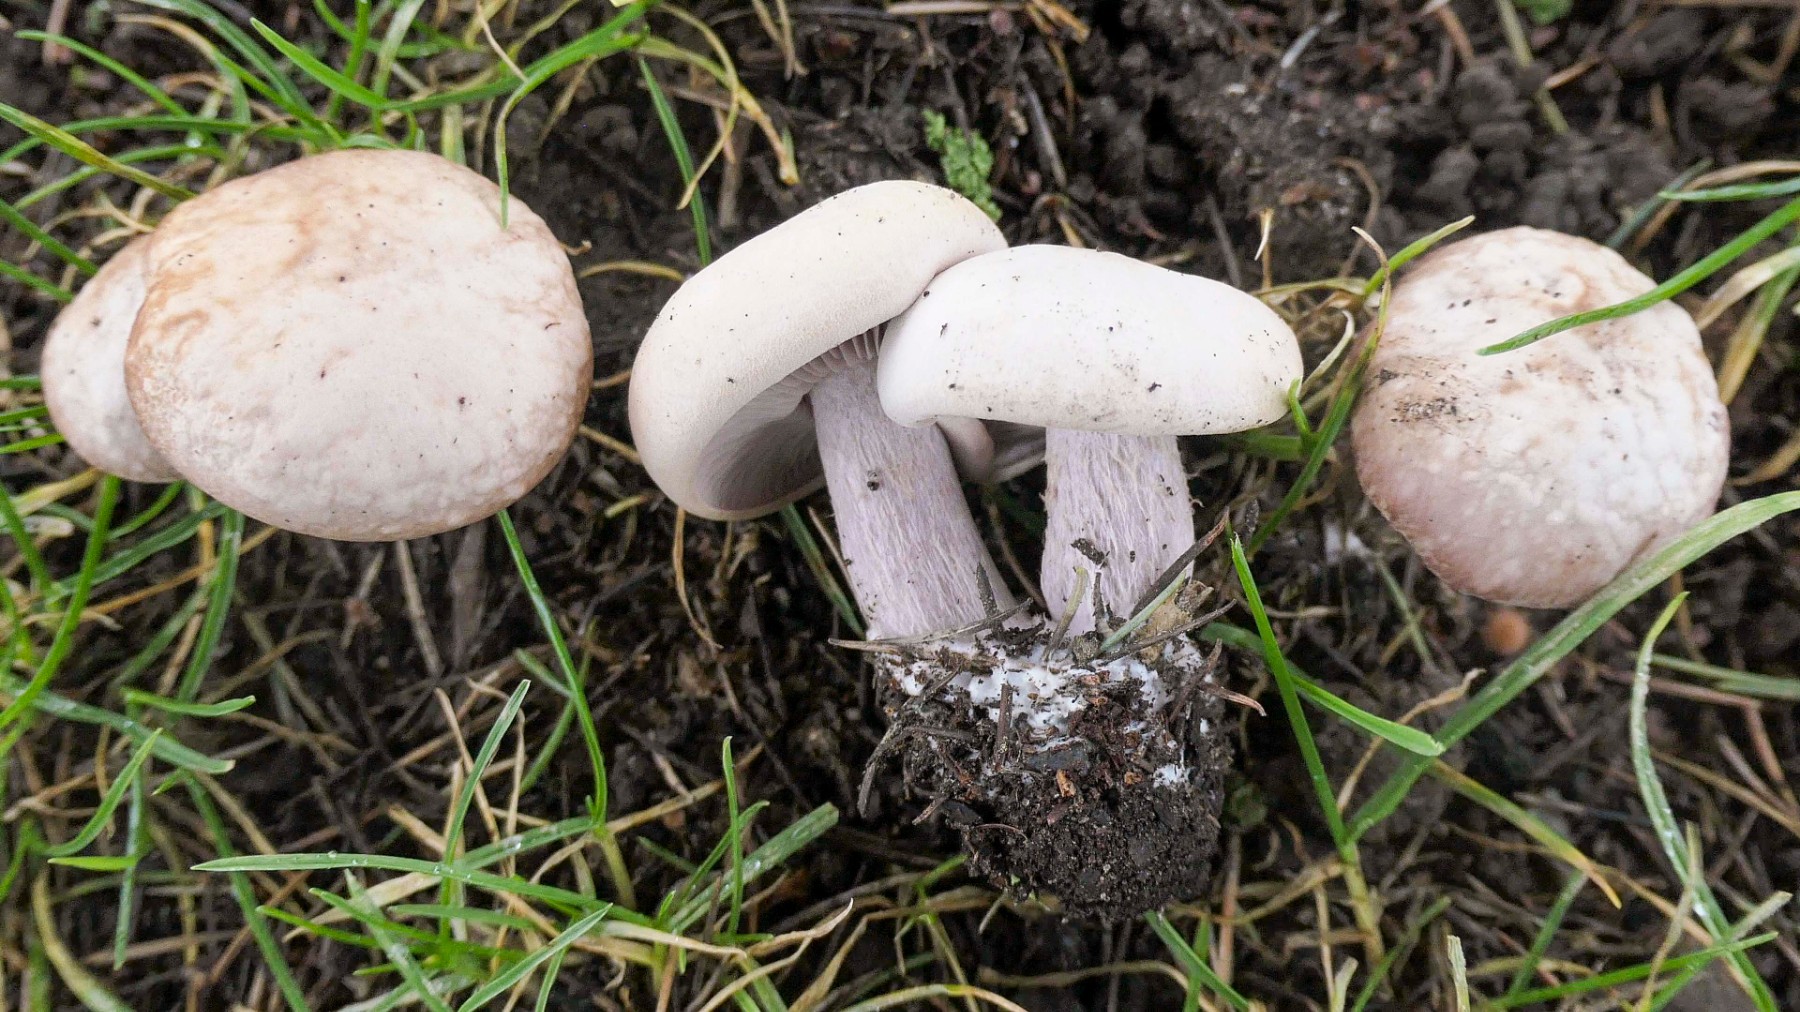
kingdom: Fungi
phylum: Basidiomycota
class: Agaricomycetes
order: Agaricales
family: Tricholomataceae
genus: Lepista
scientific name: Lepista
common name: hekseringshat
